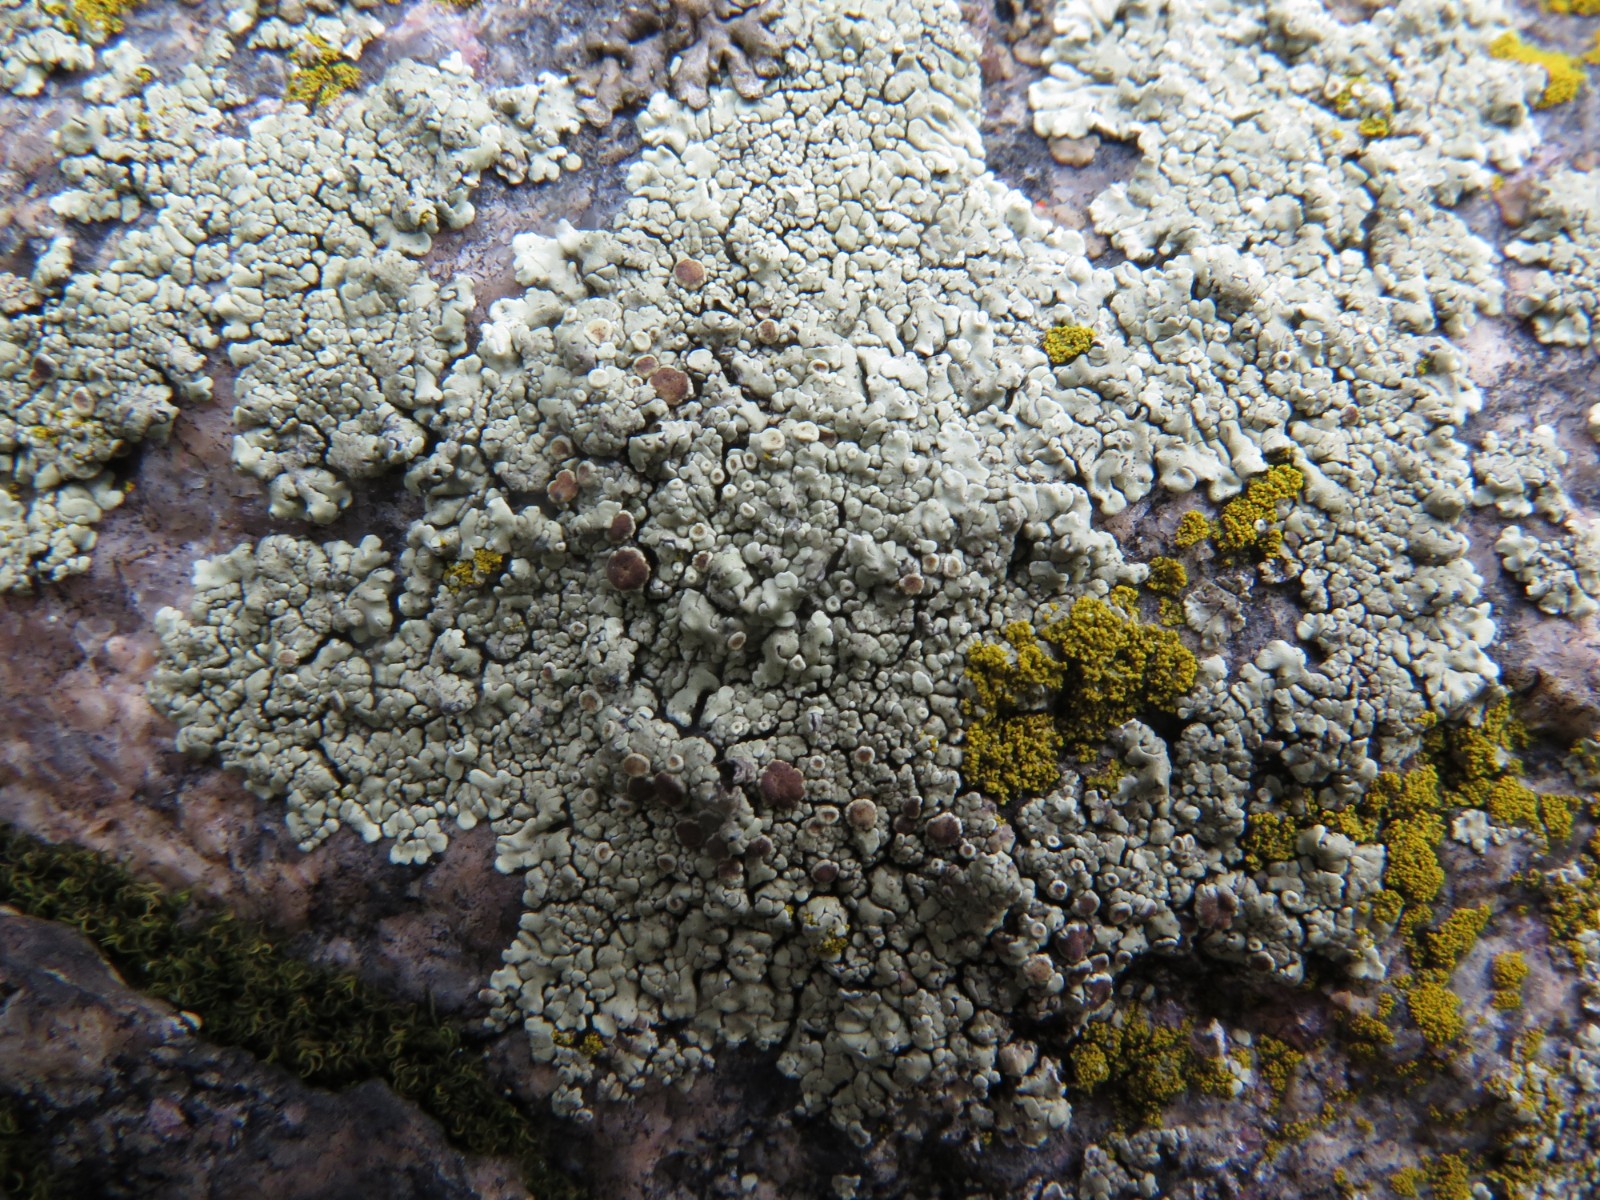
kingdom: Fungi
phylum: Ascomycota
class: Lecanoromycetes
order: Lecanorales
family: Lecanoraceae
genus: Protoparmeliopsis
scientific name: Protoparmeliopsis muralis
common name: randfliget kantskivelav
